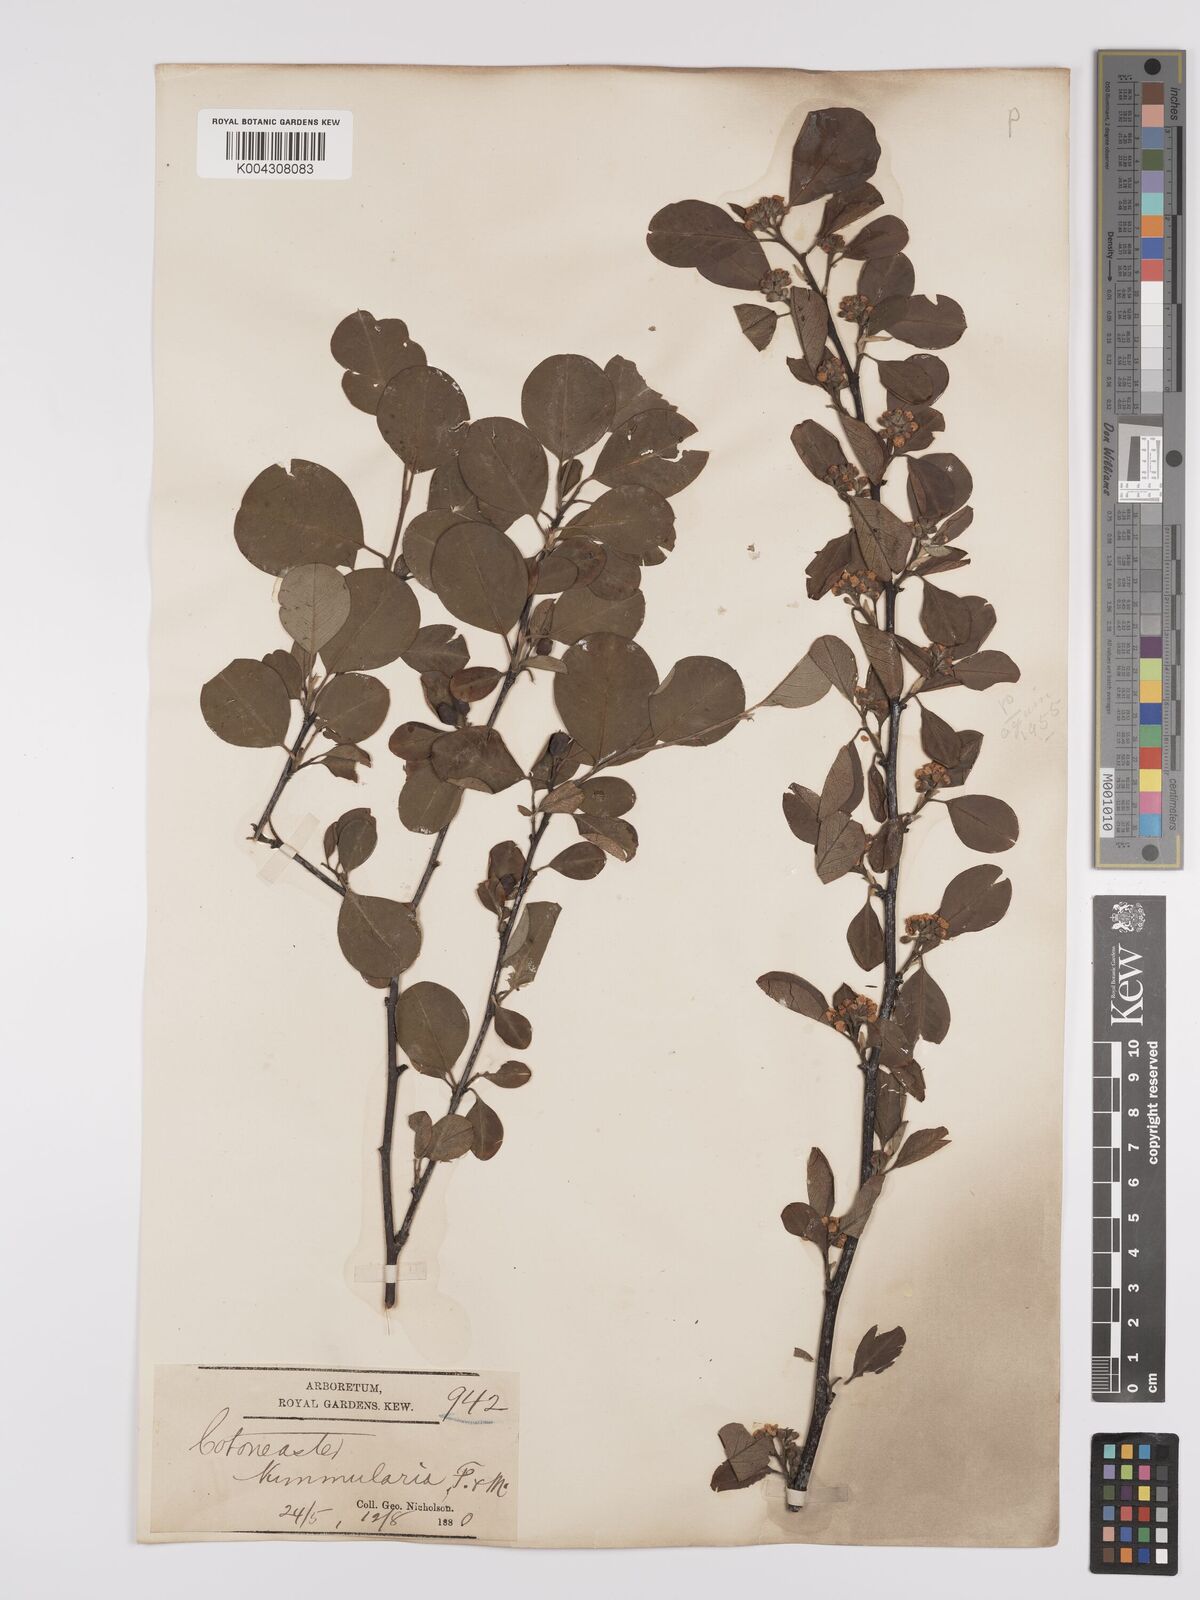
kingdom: Plantae
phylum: Tracheophyta
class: Magnoliopsida
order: Rosales
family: Rosaceae
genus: Cotoneaster
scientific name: Cotoneaster lindleyi
